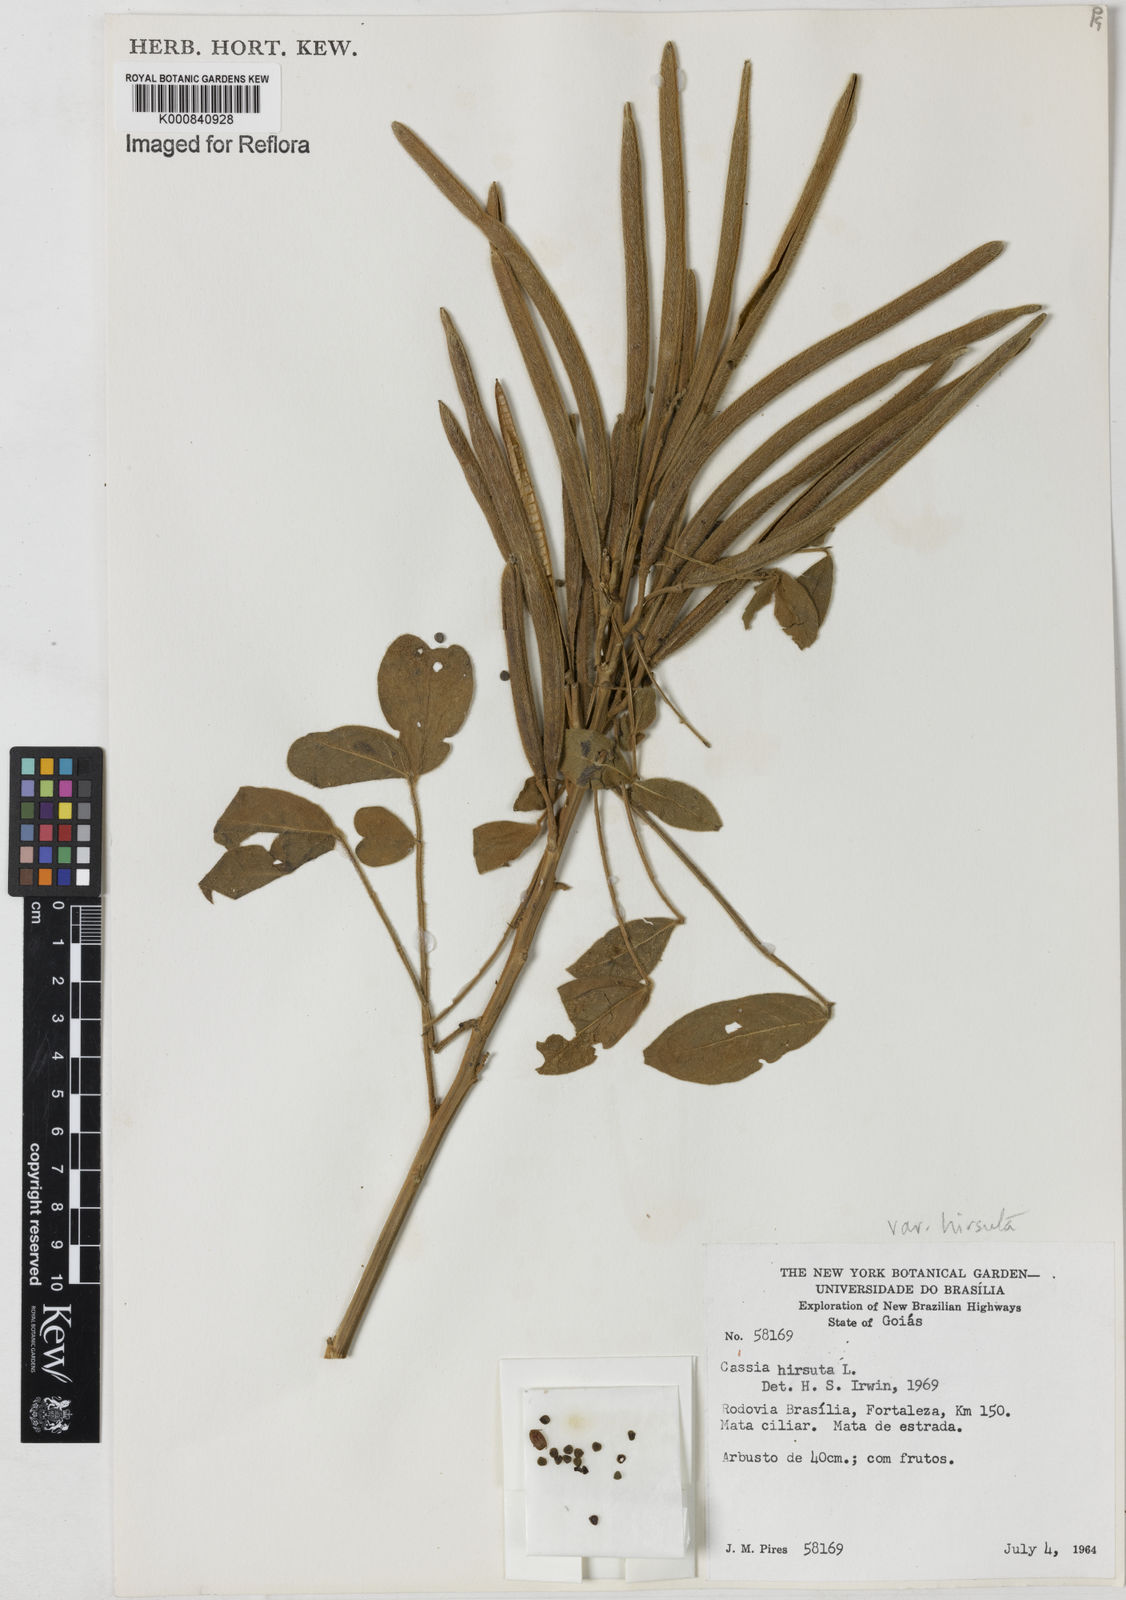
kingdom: Plantae
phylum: Tracheophyta
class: Magnoliopsida
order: Fabales
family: Fabaceae
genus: Senna
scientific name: Senna hirsuta
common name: Woolly senna
